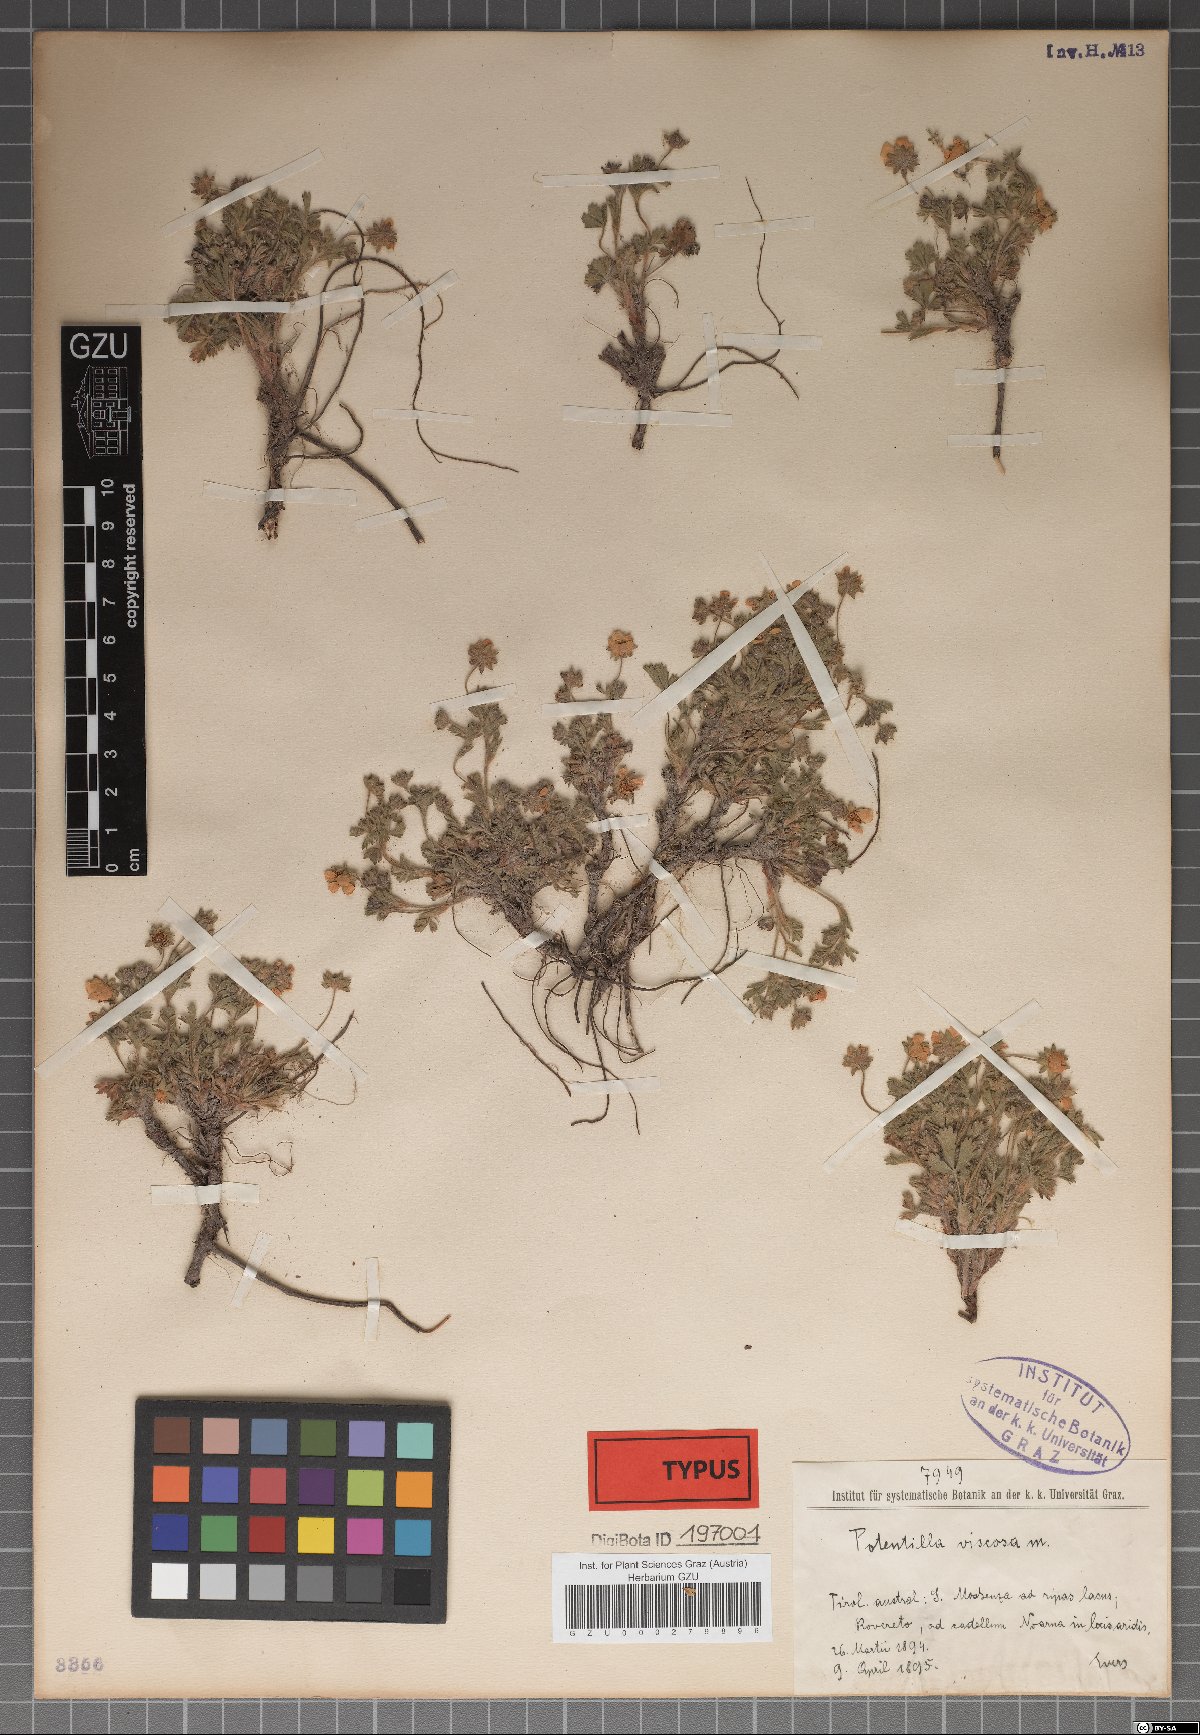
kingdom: Plantae
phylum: Tracheophyta
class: Magnoliopsida
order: Rosales
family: Rosaceae
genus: Potentilla
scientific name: Potentilla pusilla
